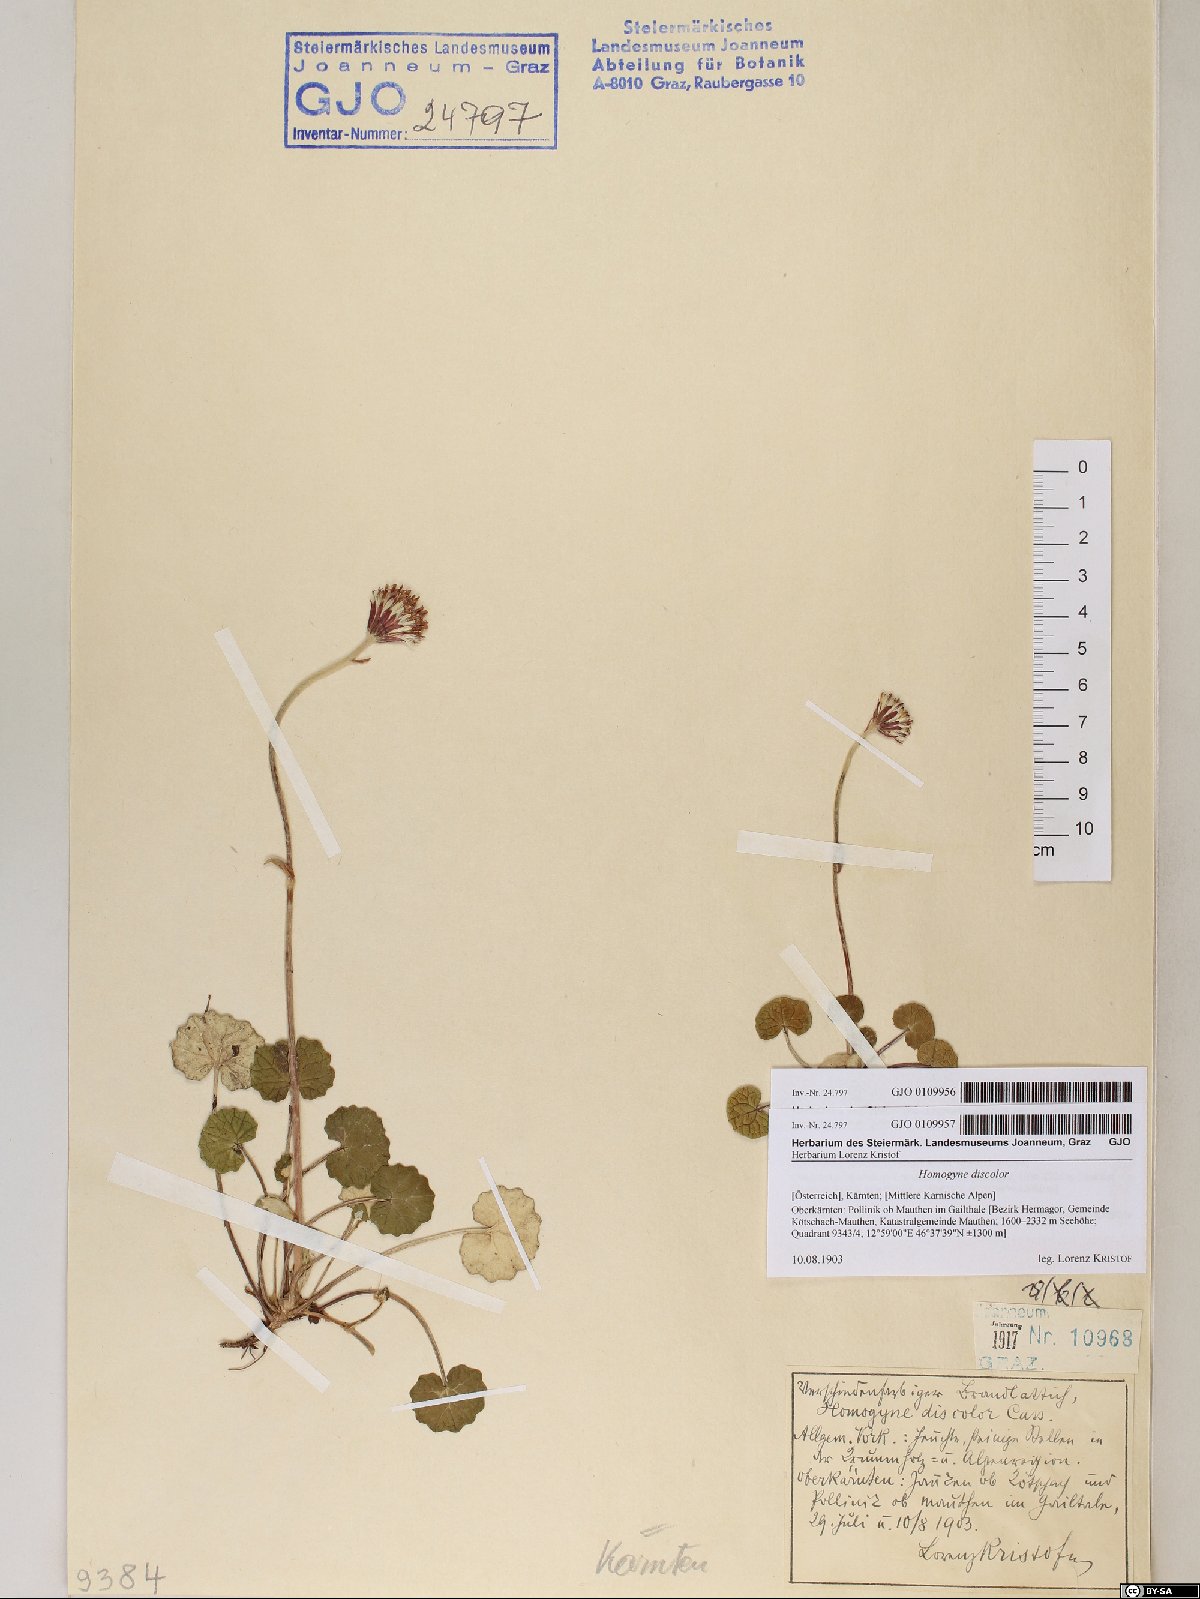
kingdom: Plantae
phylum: Tracheophyta
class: Magnoliopsida
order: Asterales
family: Asteraceae
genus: Homogyne
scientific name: Homogyne discolor
